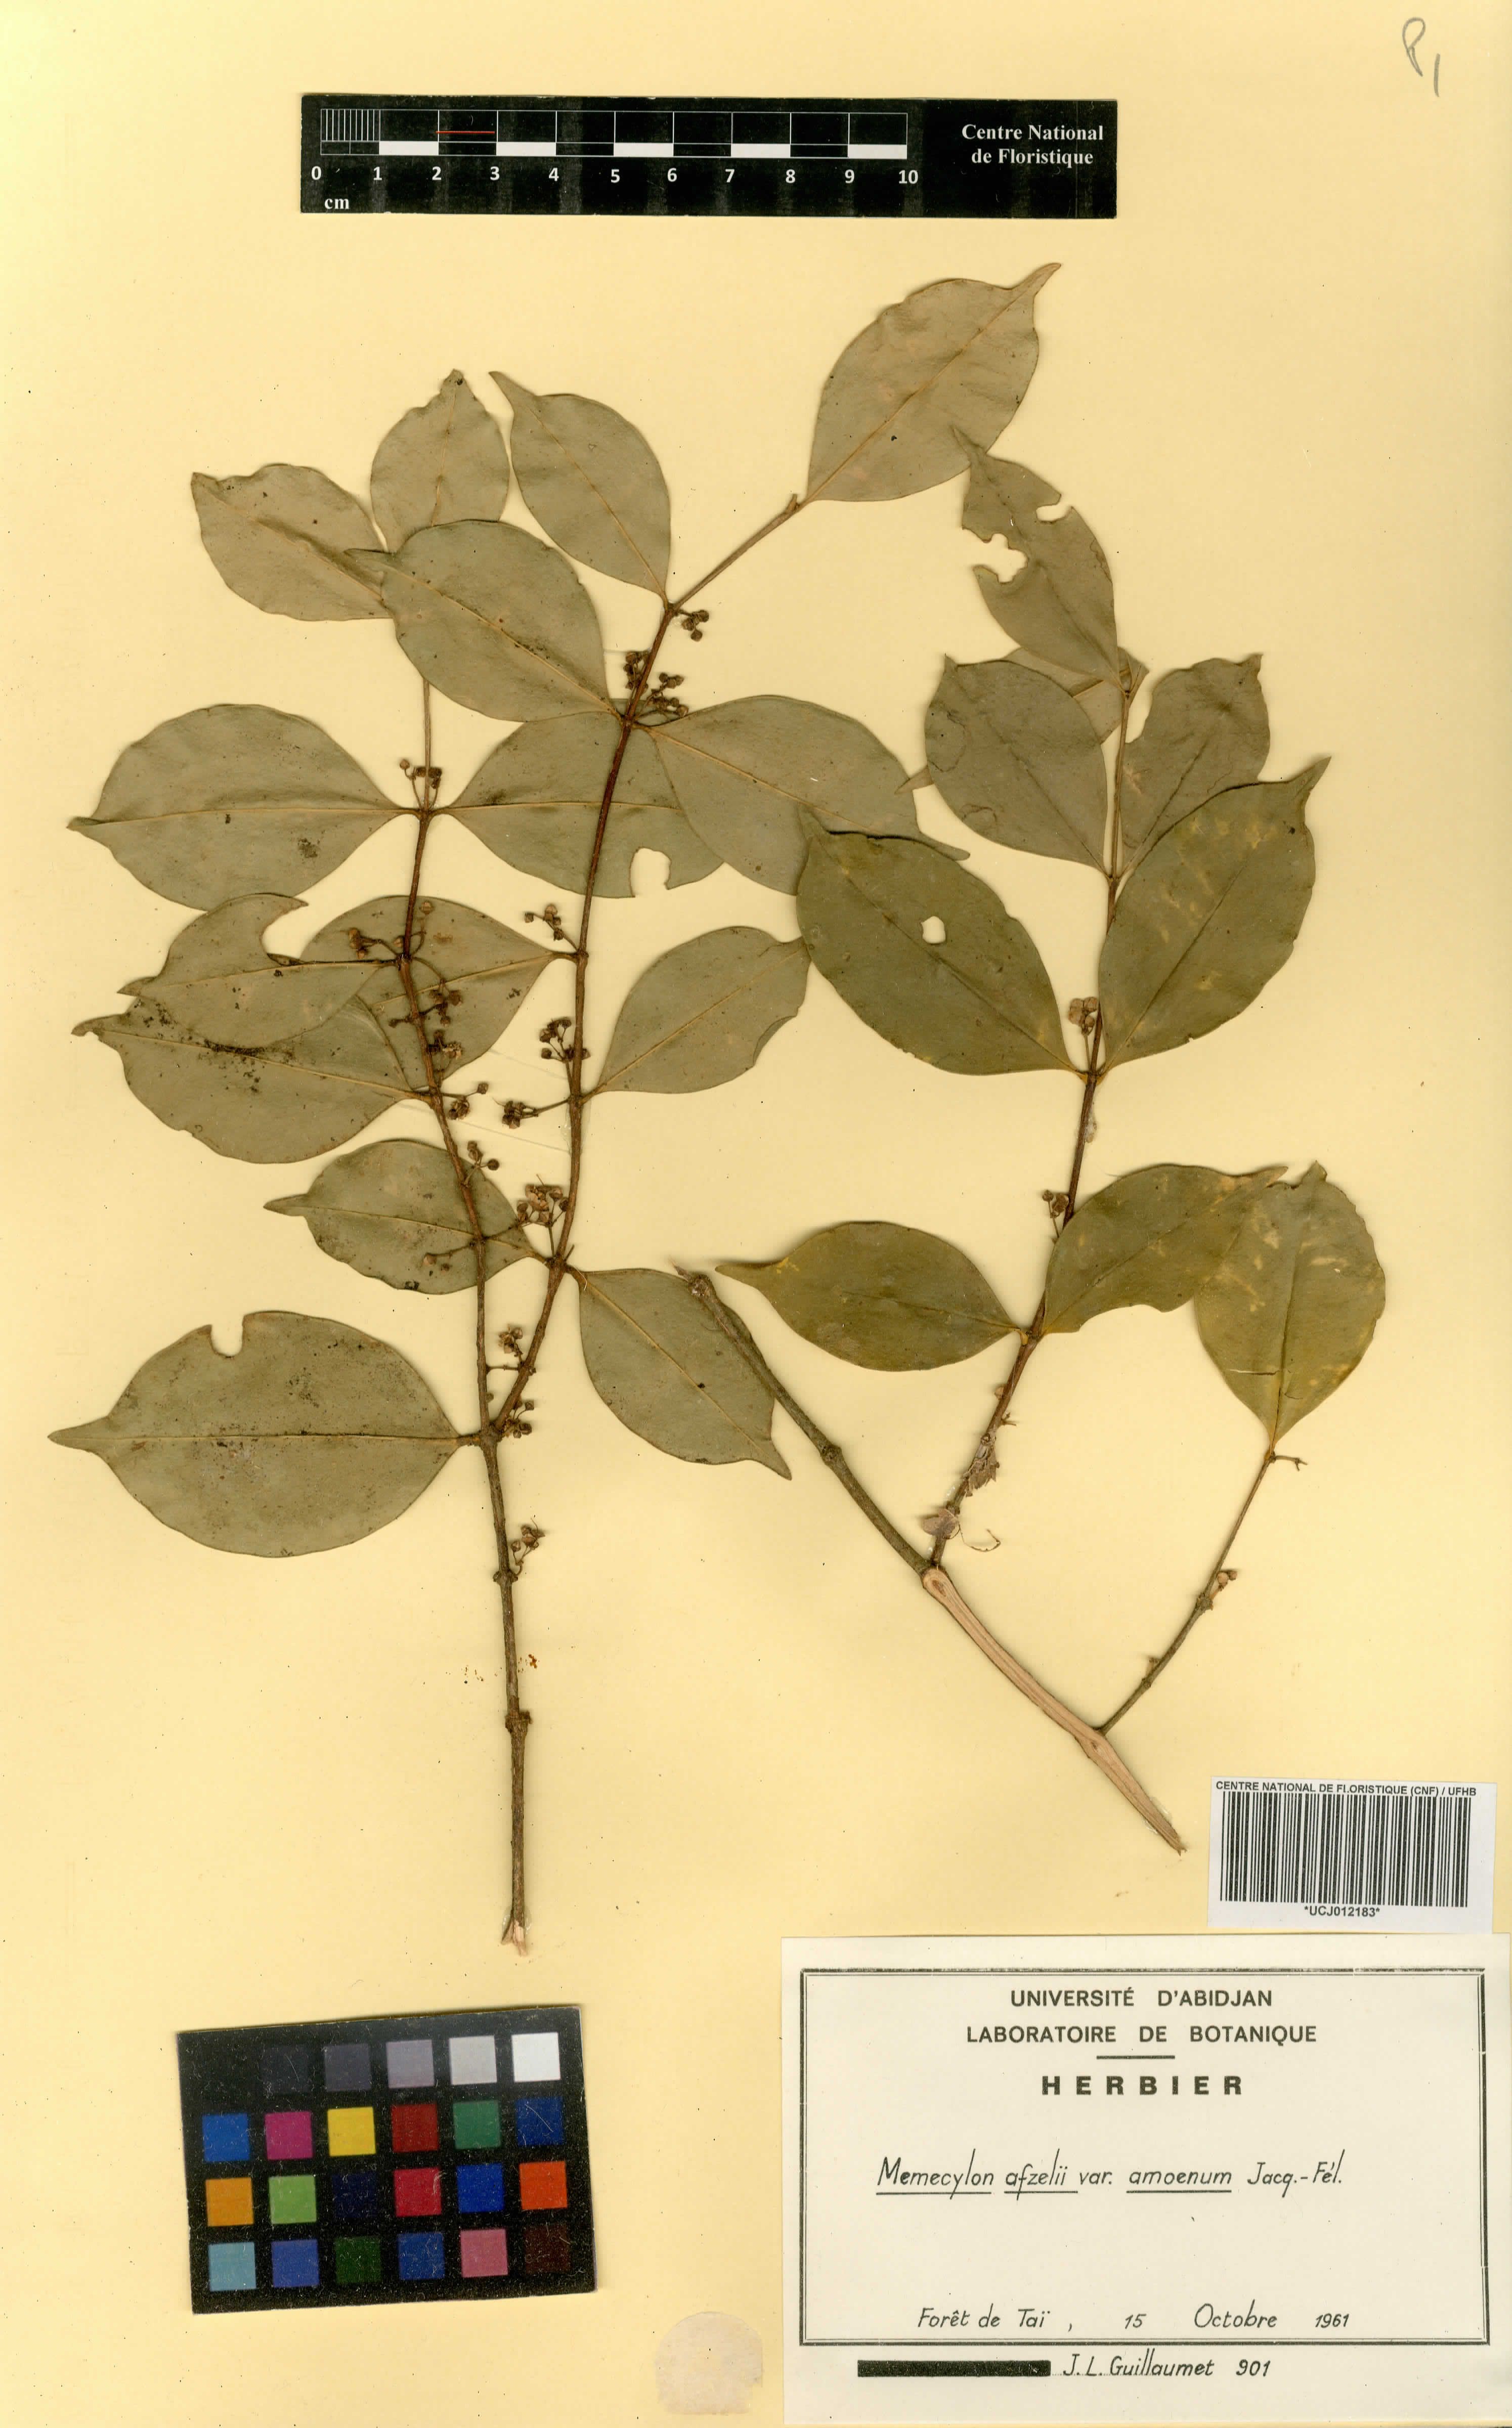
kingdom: Plantae
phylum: Tracheophyta
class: Magnoliopsida
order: Myrtales
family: Melastomataceae
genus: Memecylon
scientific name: Memecylon accedens
